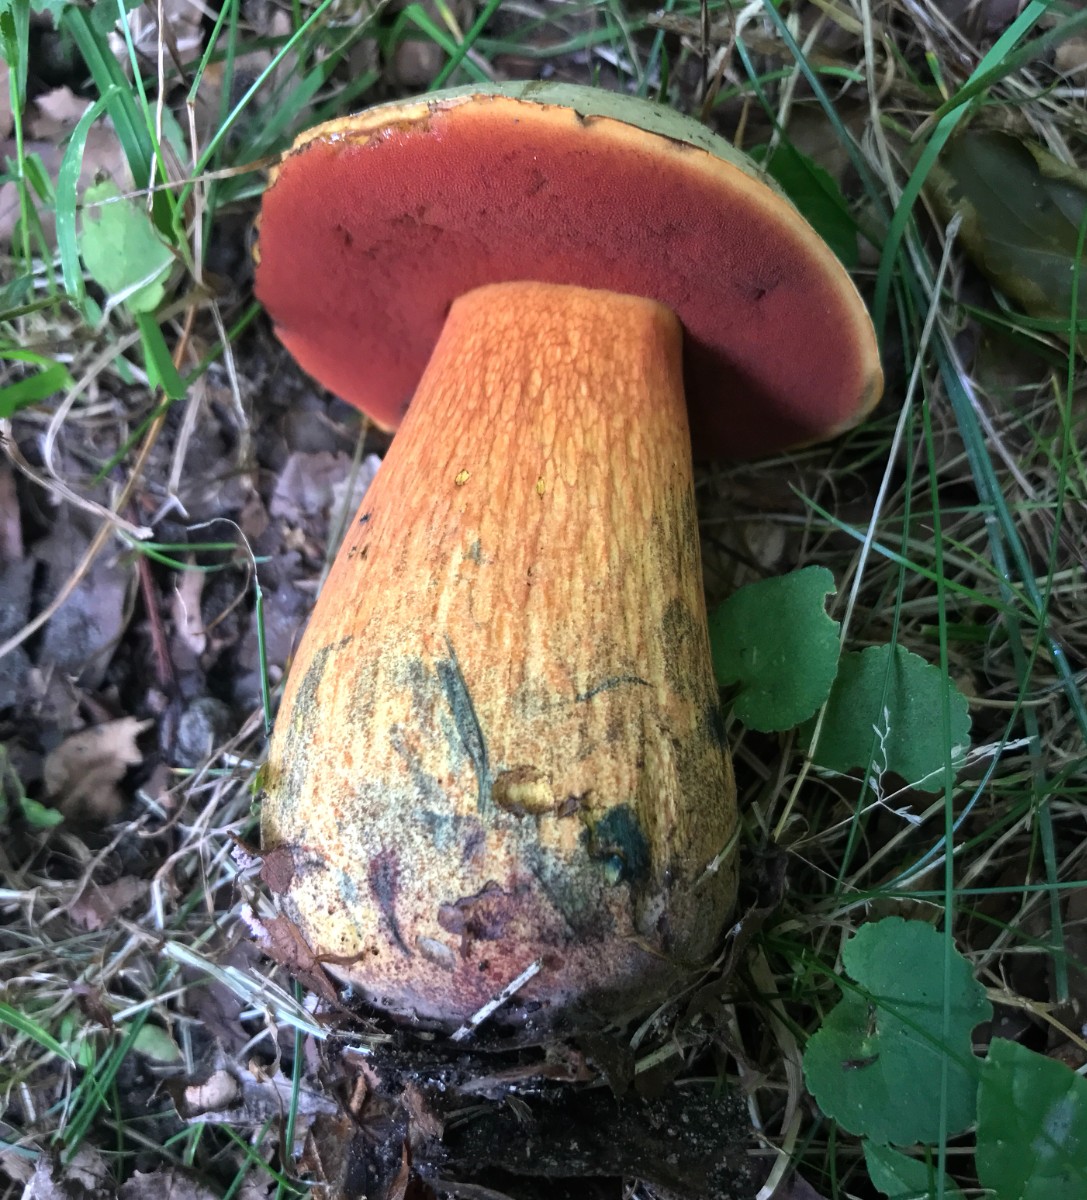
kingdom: Fungi
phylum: Basidiomycota
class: Agaricomycetes
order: Boletales
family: Boletaceae
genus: Suillellus
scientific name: Suillellus luridus
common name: netstokket indigorørhat
